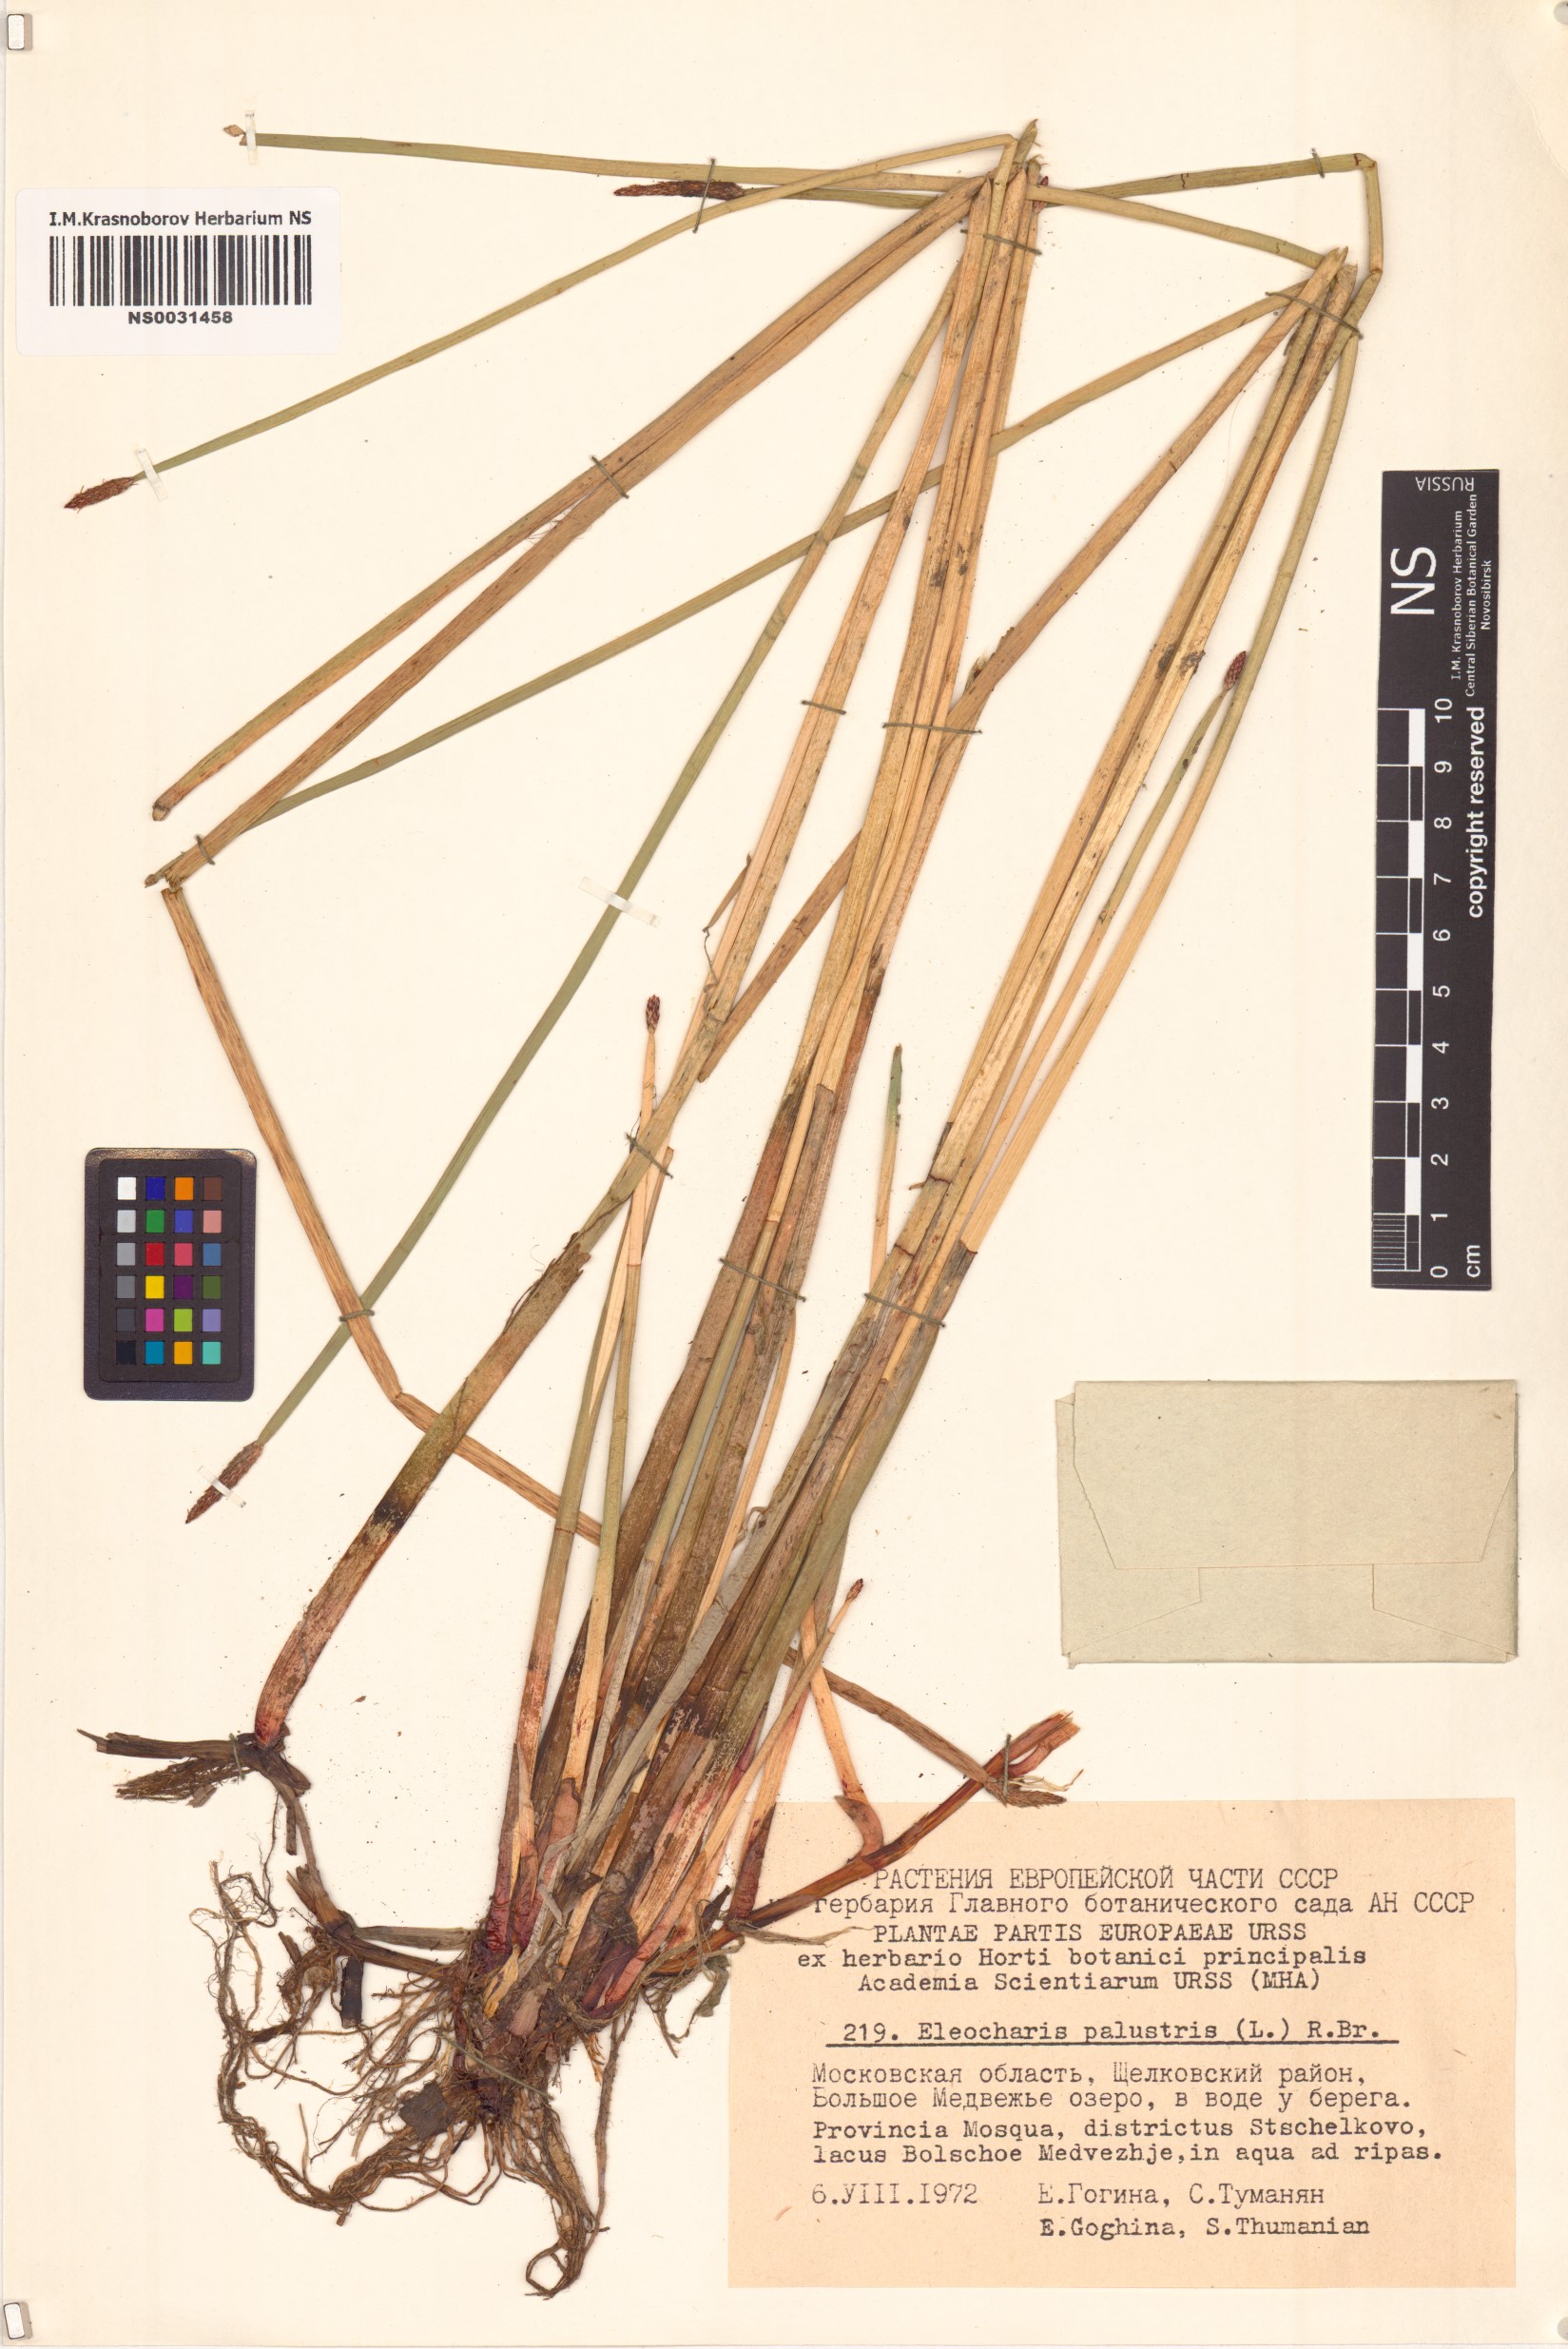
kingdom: Plantae
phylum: Tracheophyta
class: Liliopsida
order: Poales
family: Cyperaceae
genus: Eleocharis
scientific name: Eleocharis palustris
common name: Common spike-rush
